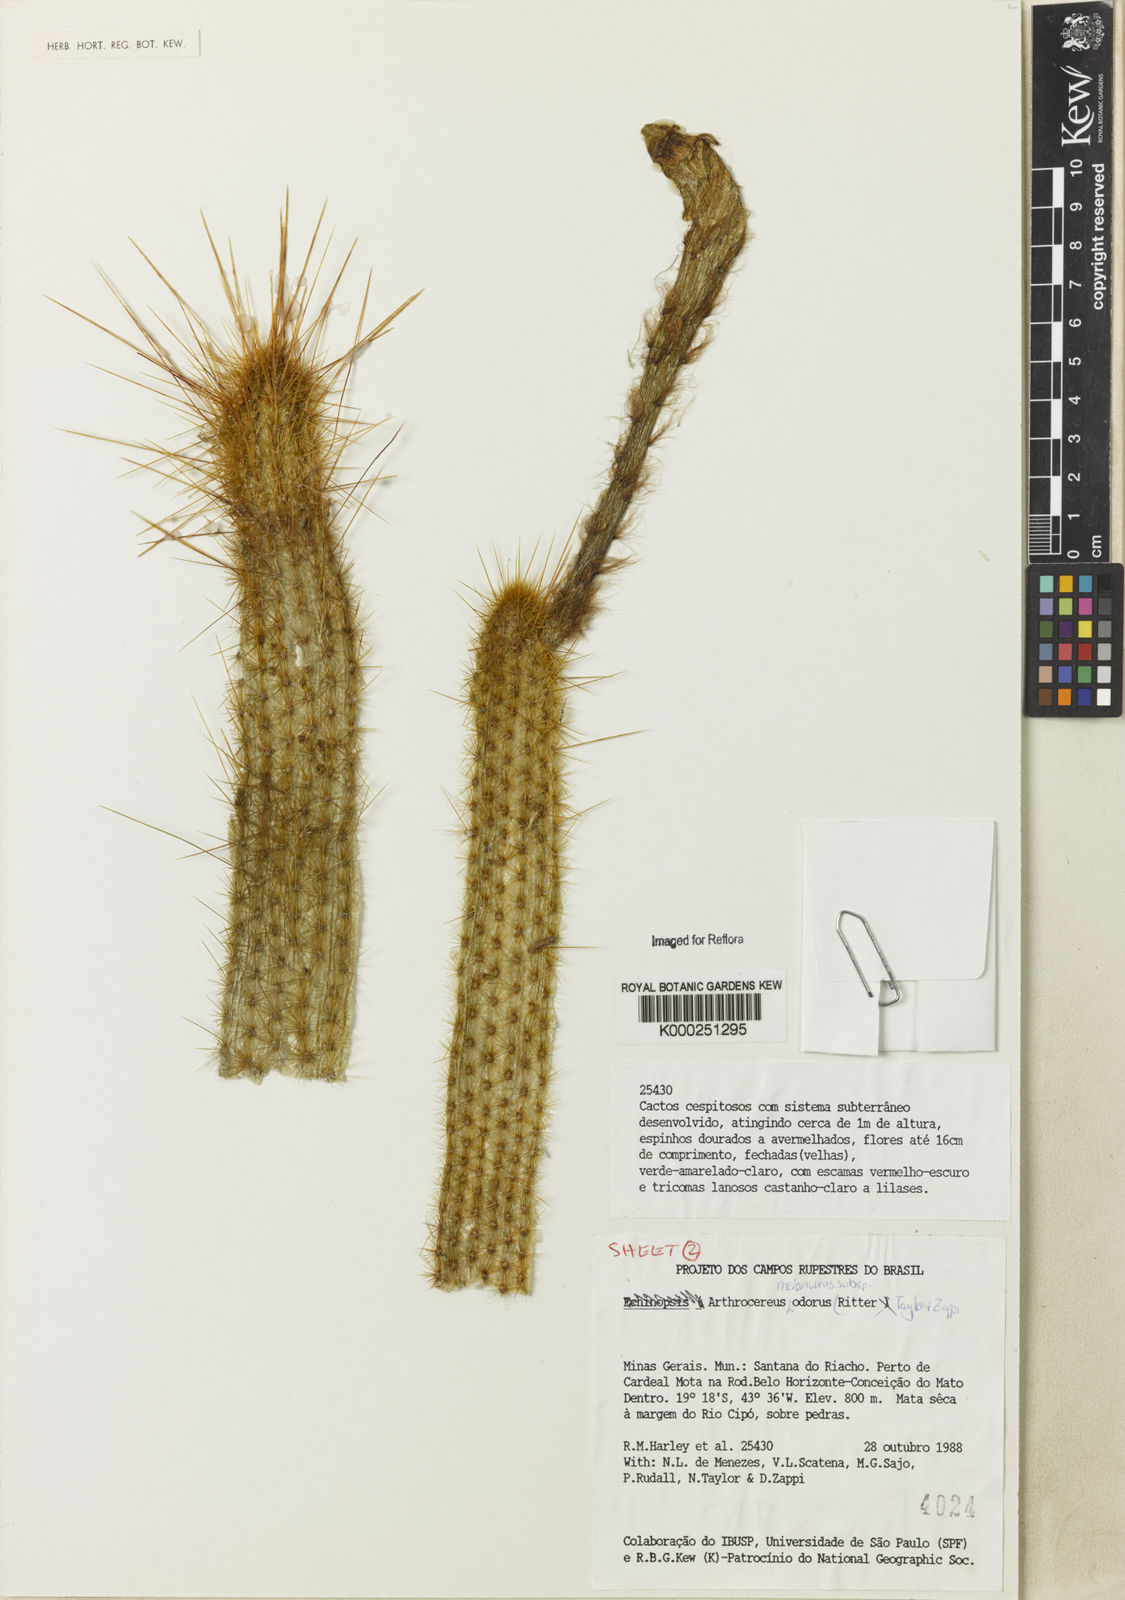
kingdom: Plantae
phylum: Tracheophyta
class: Magnoliopsida
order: Caryophyllales
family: Cactaceae
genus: Arthrocereus
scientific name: Arthrocereus melanurus
